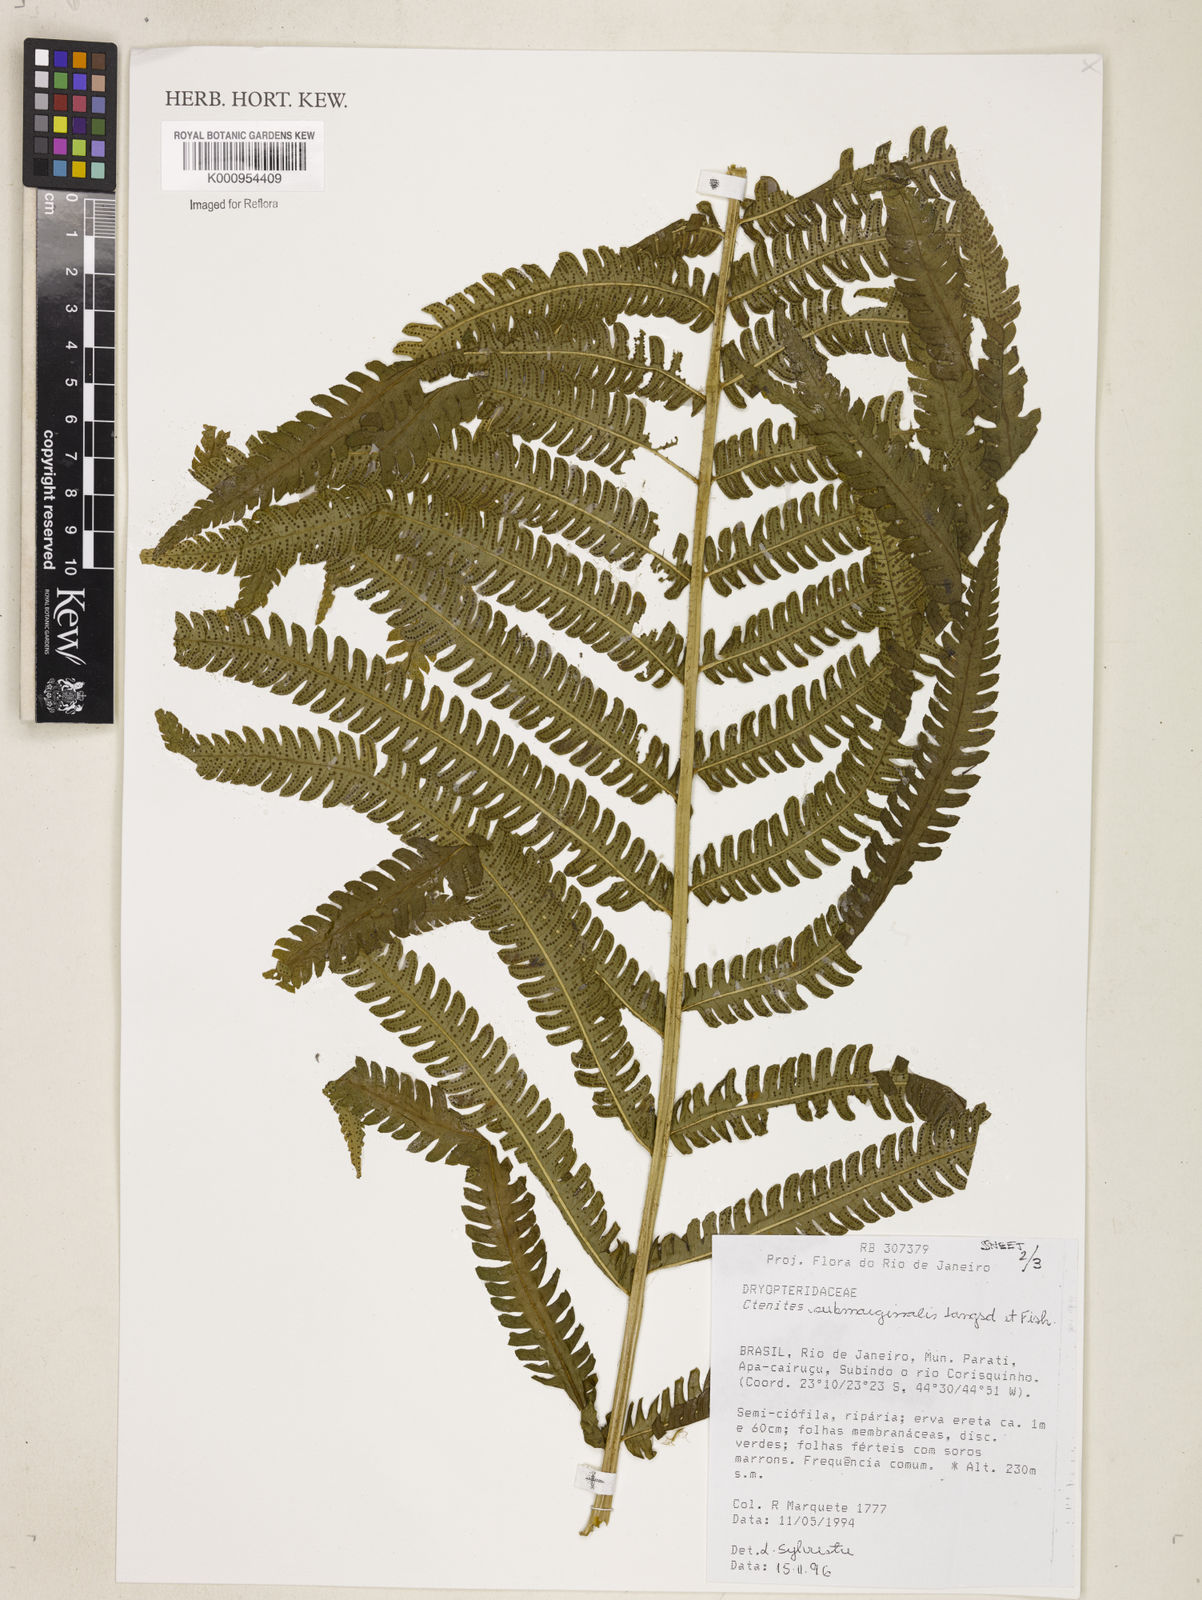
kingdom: Plantae
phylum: Tracheophyta
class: Polypodiopsida
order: Polypodiales
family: Dryopteridaceae
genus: Ctenitis
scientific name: Ctenitis submarginalis
